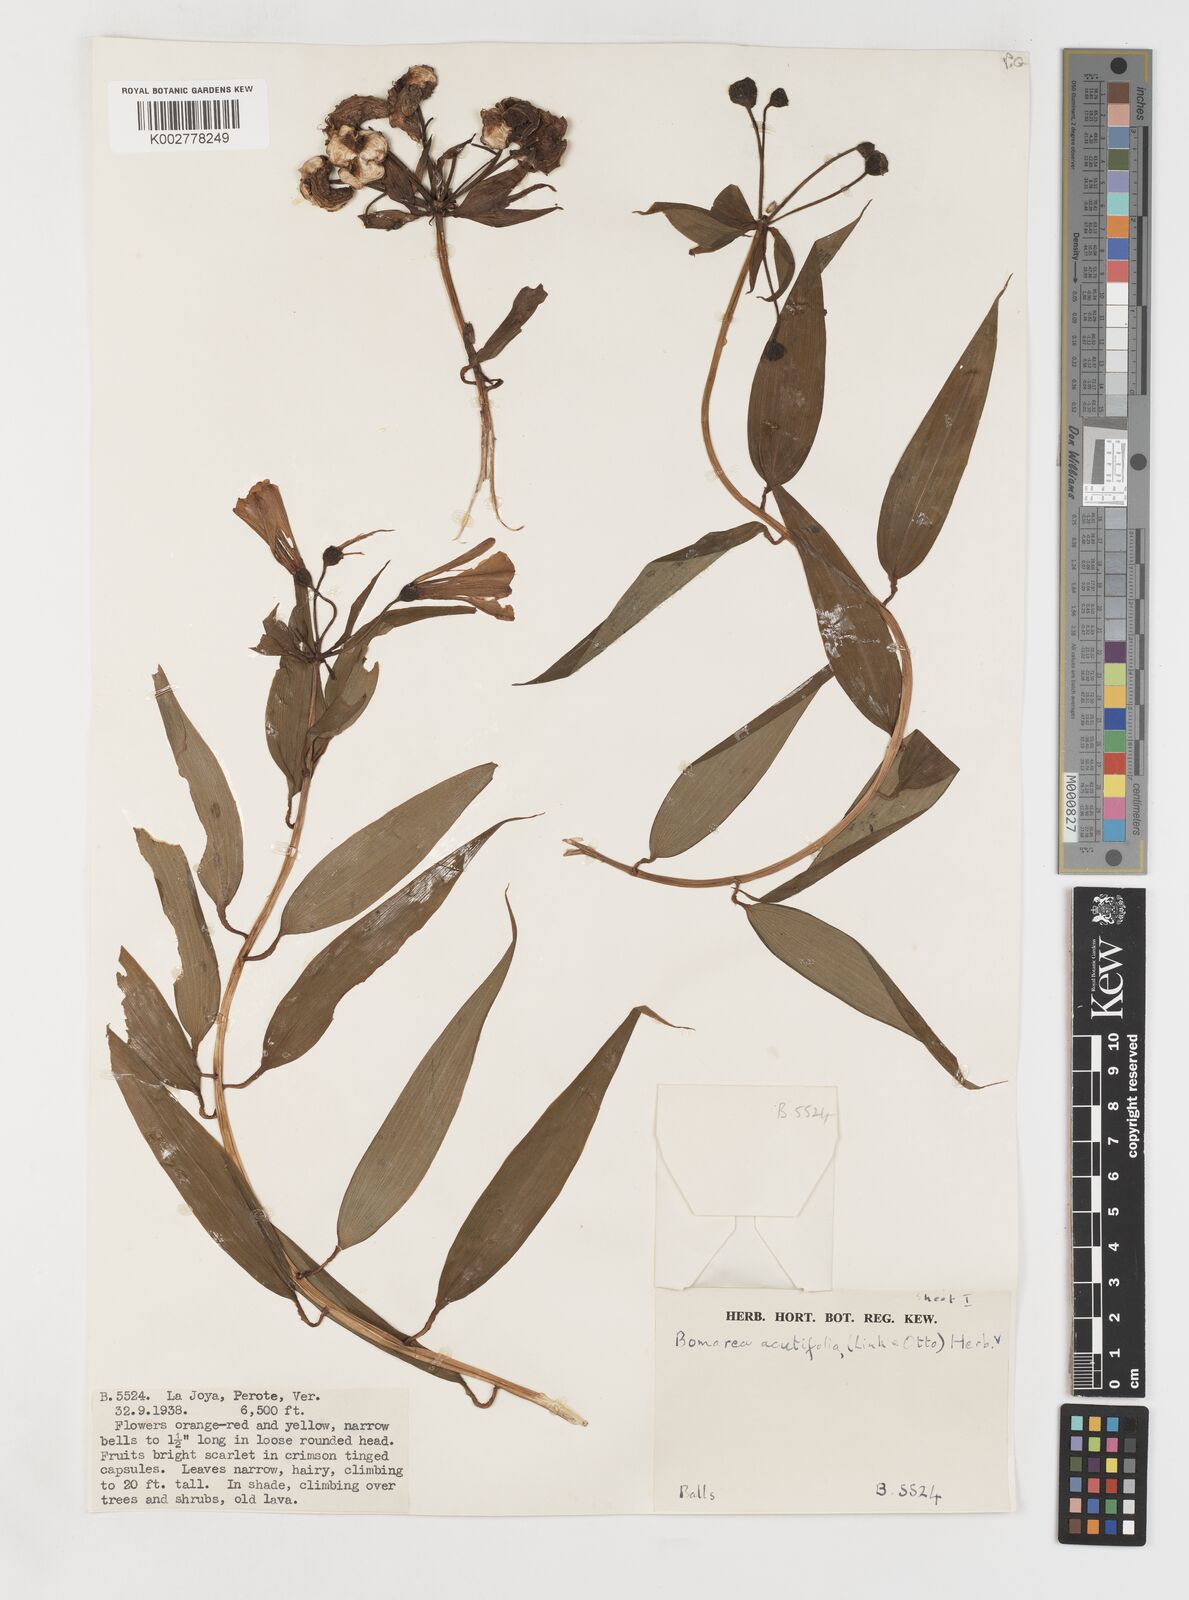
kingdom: Plantae
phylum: Tracheophyta
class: Liliopsida
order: Liliales
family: Alstroemeriaceae
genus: Bomarea
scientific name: Bomarea acutifolia
